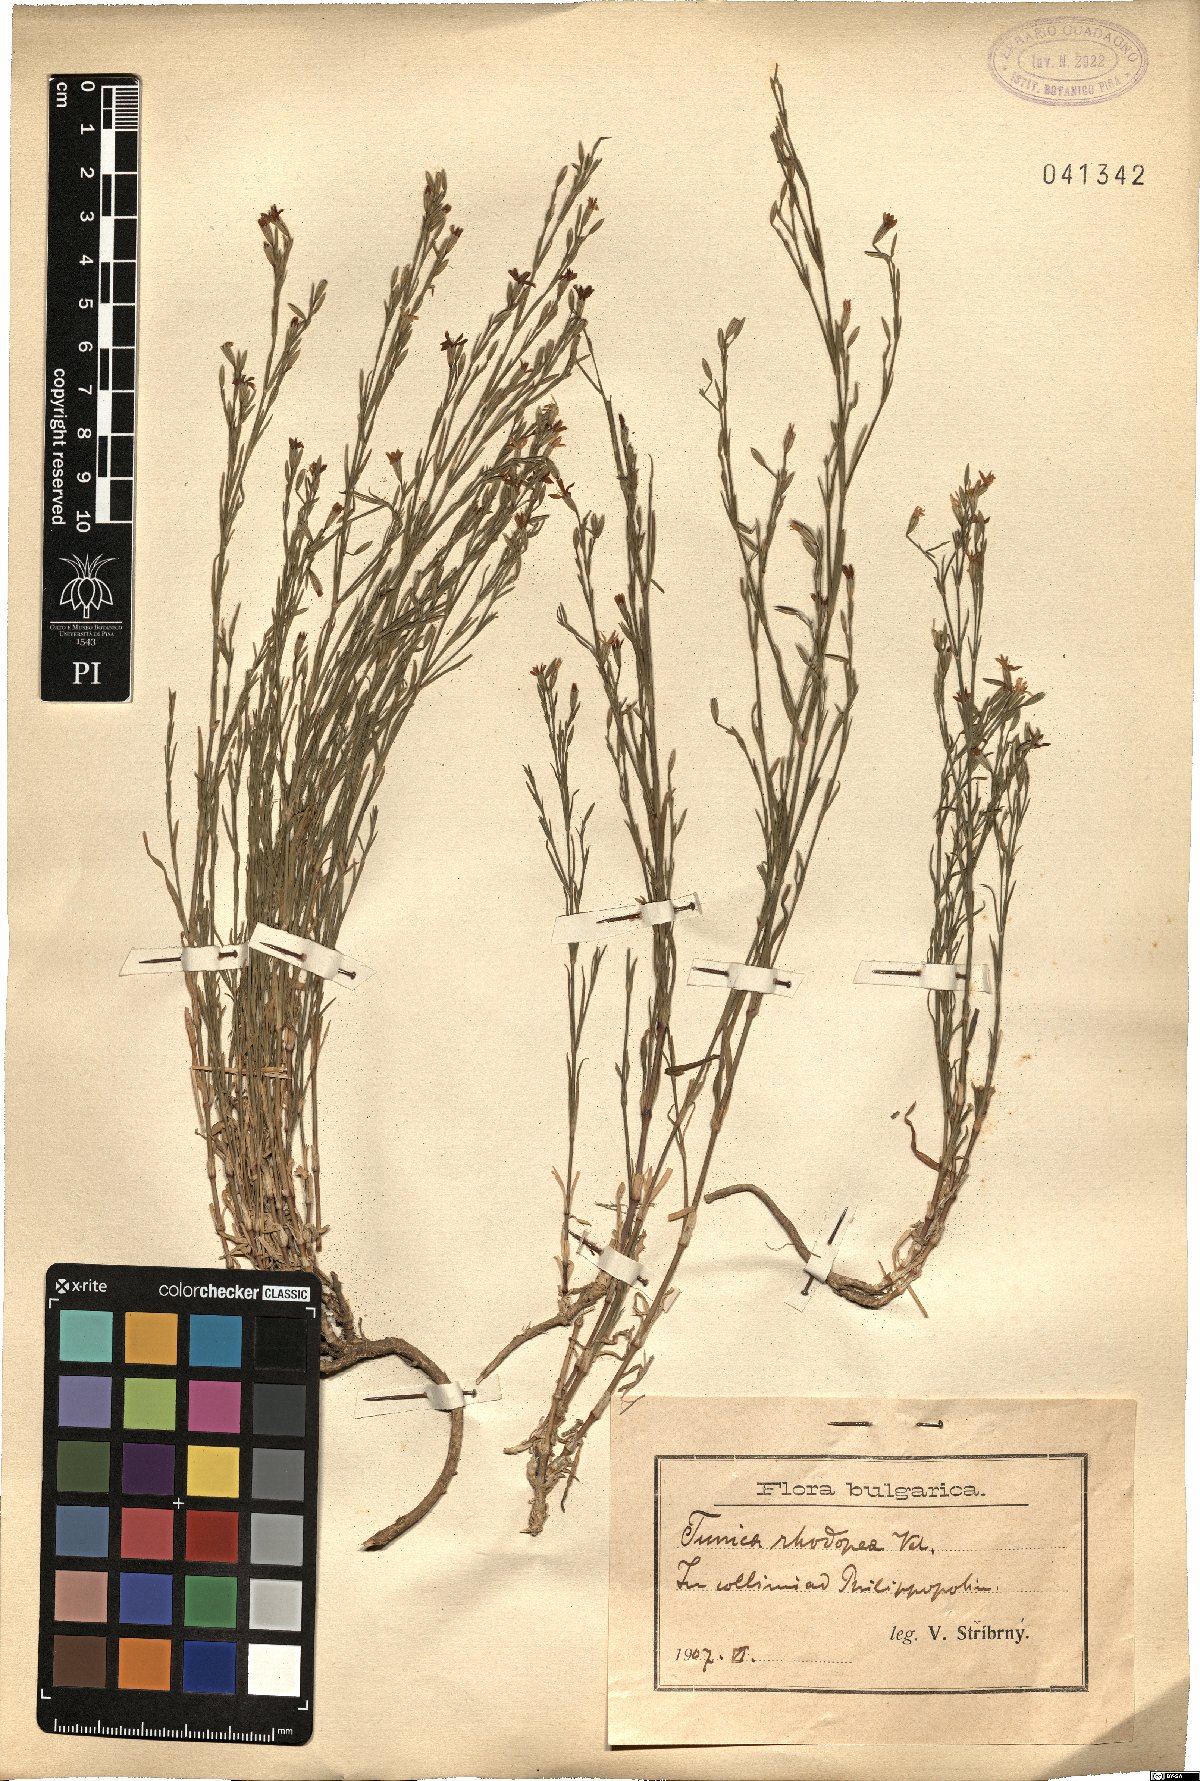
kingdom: Plantae
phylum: Tracheophyta
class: Magnoliopsida
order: Caryophyllales
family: Caryophyllaceae
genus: Petrorhagia
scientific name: Petrorhagia ochroleuca
